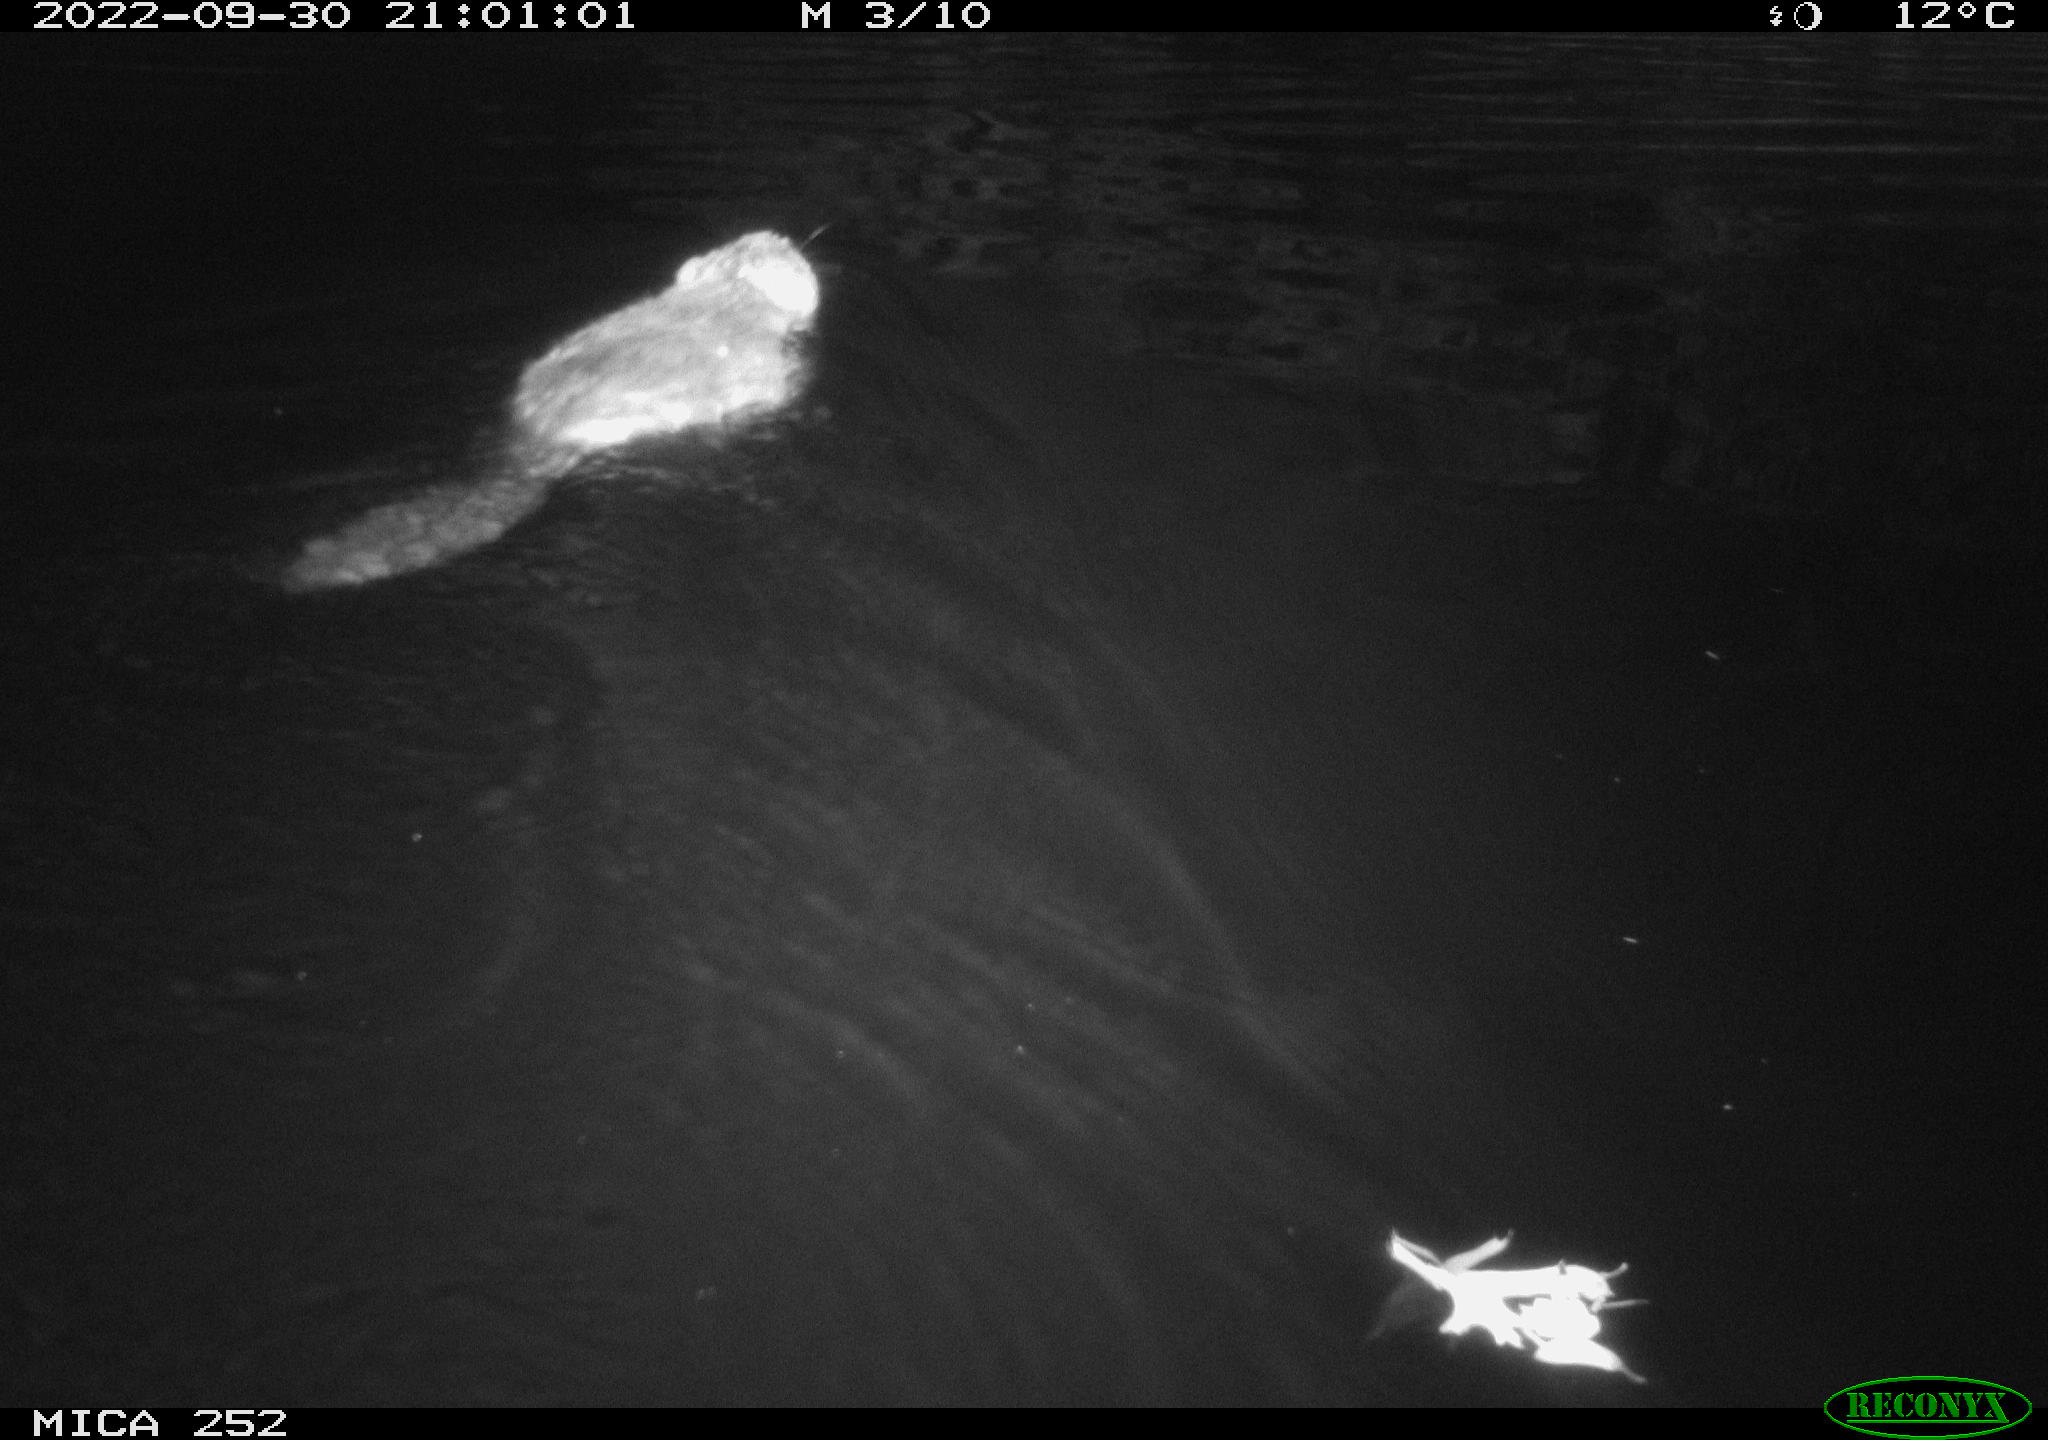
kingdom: Animalia
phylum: Chordata
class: Mammalia
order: Rodentia
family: Castoridae
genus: Castor
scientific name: Castor fiber
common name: Eurasian beaver
